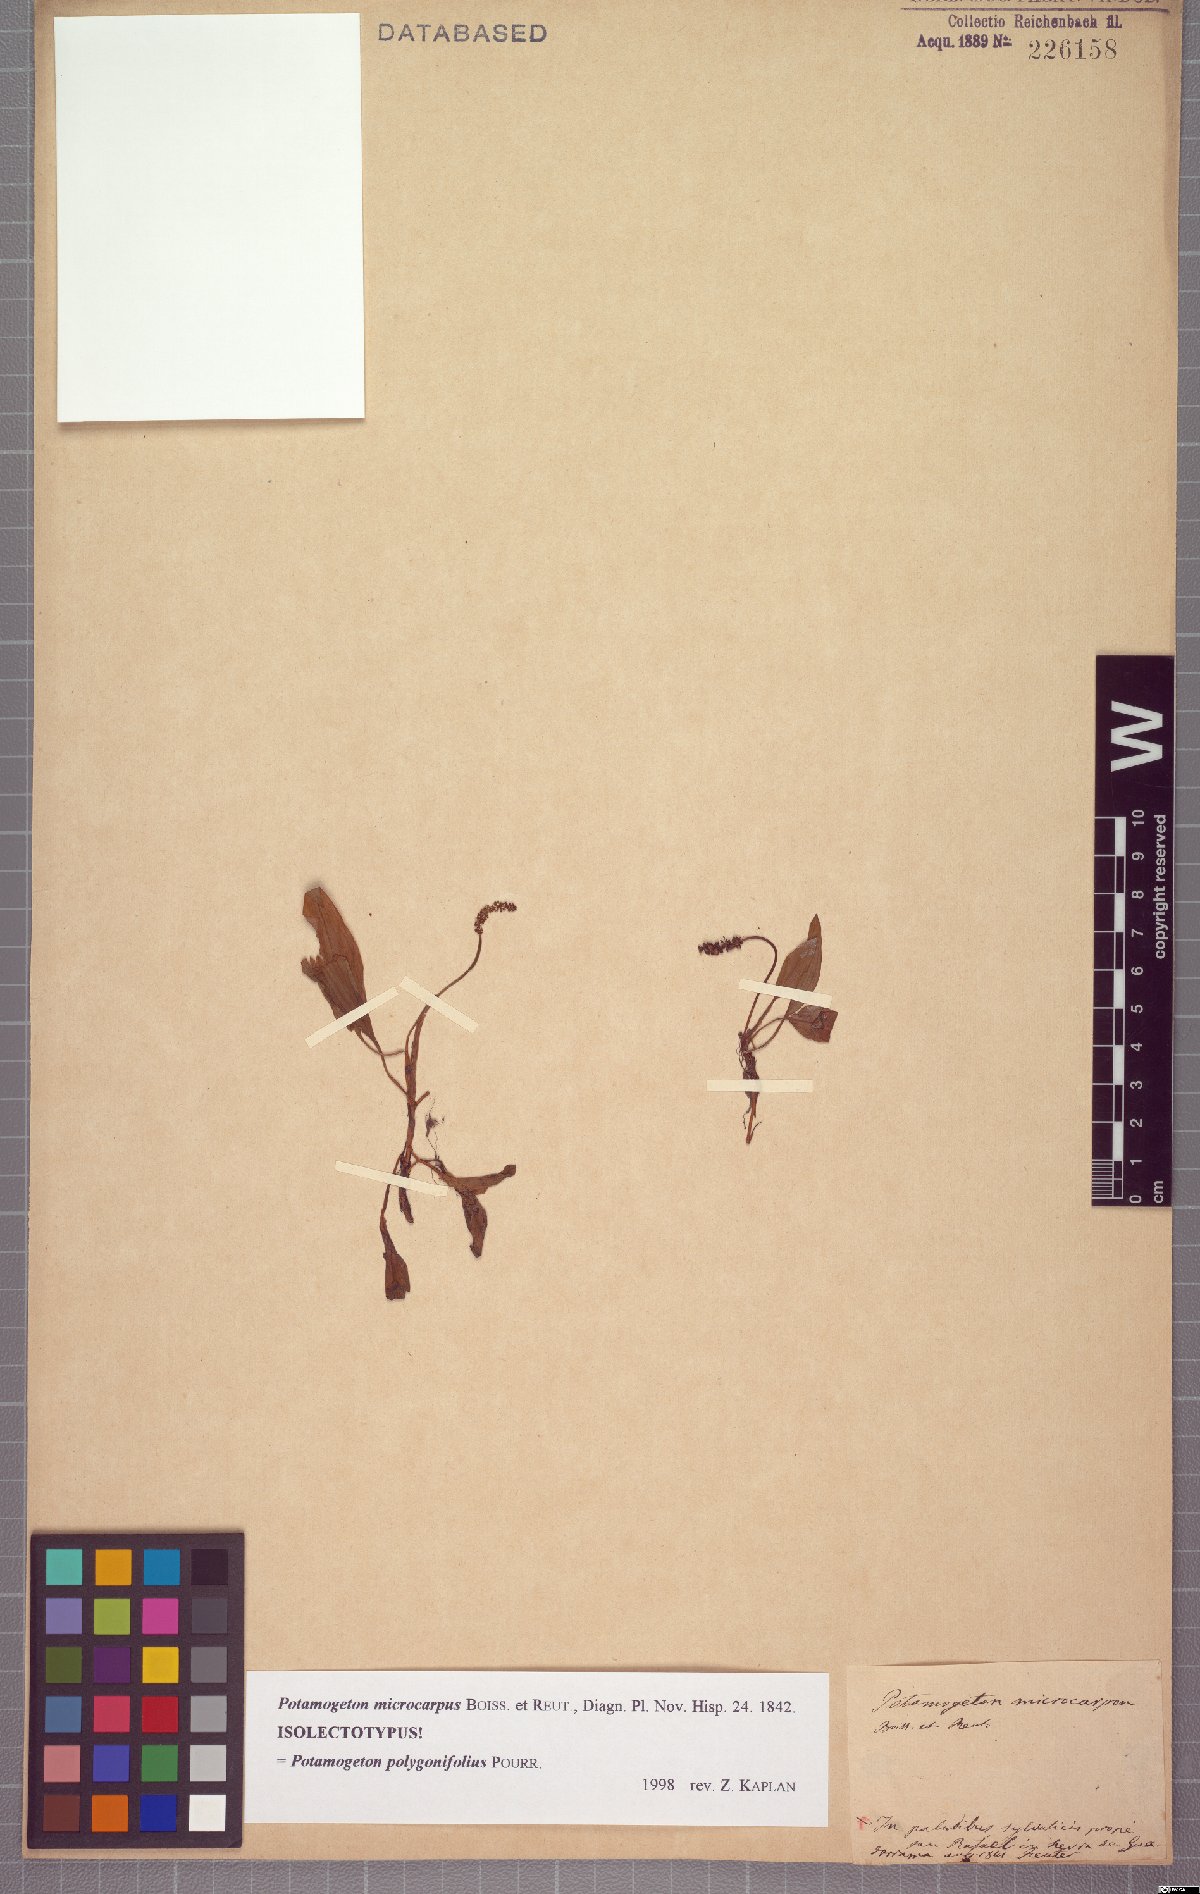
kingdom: Plantae
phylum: Tracheophyta
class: Liliopsida
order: Alismatales
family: Potamogetonaceae
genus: Potamogeton
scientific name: Potamogeton polygonifolius
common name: Bog pondweed
